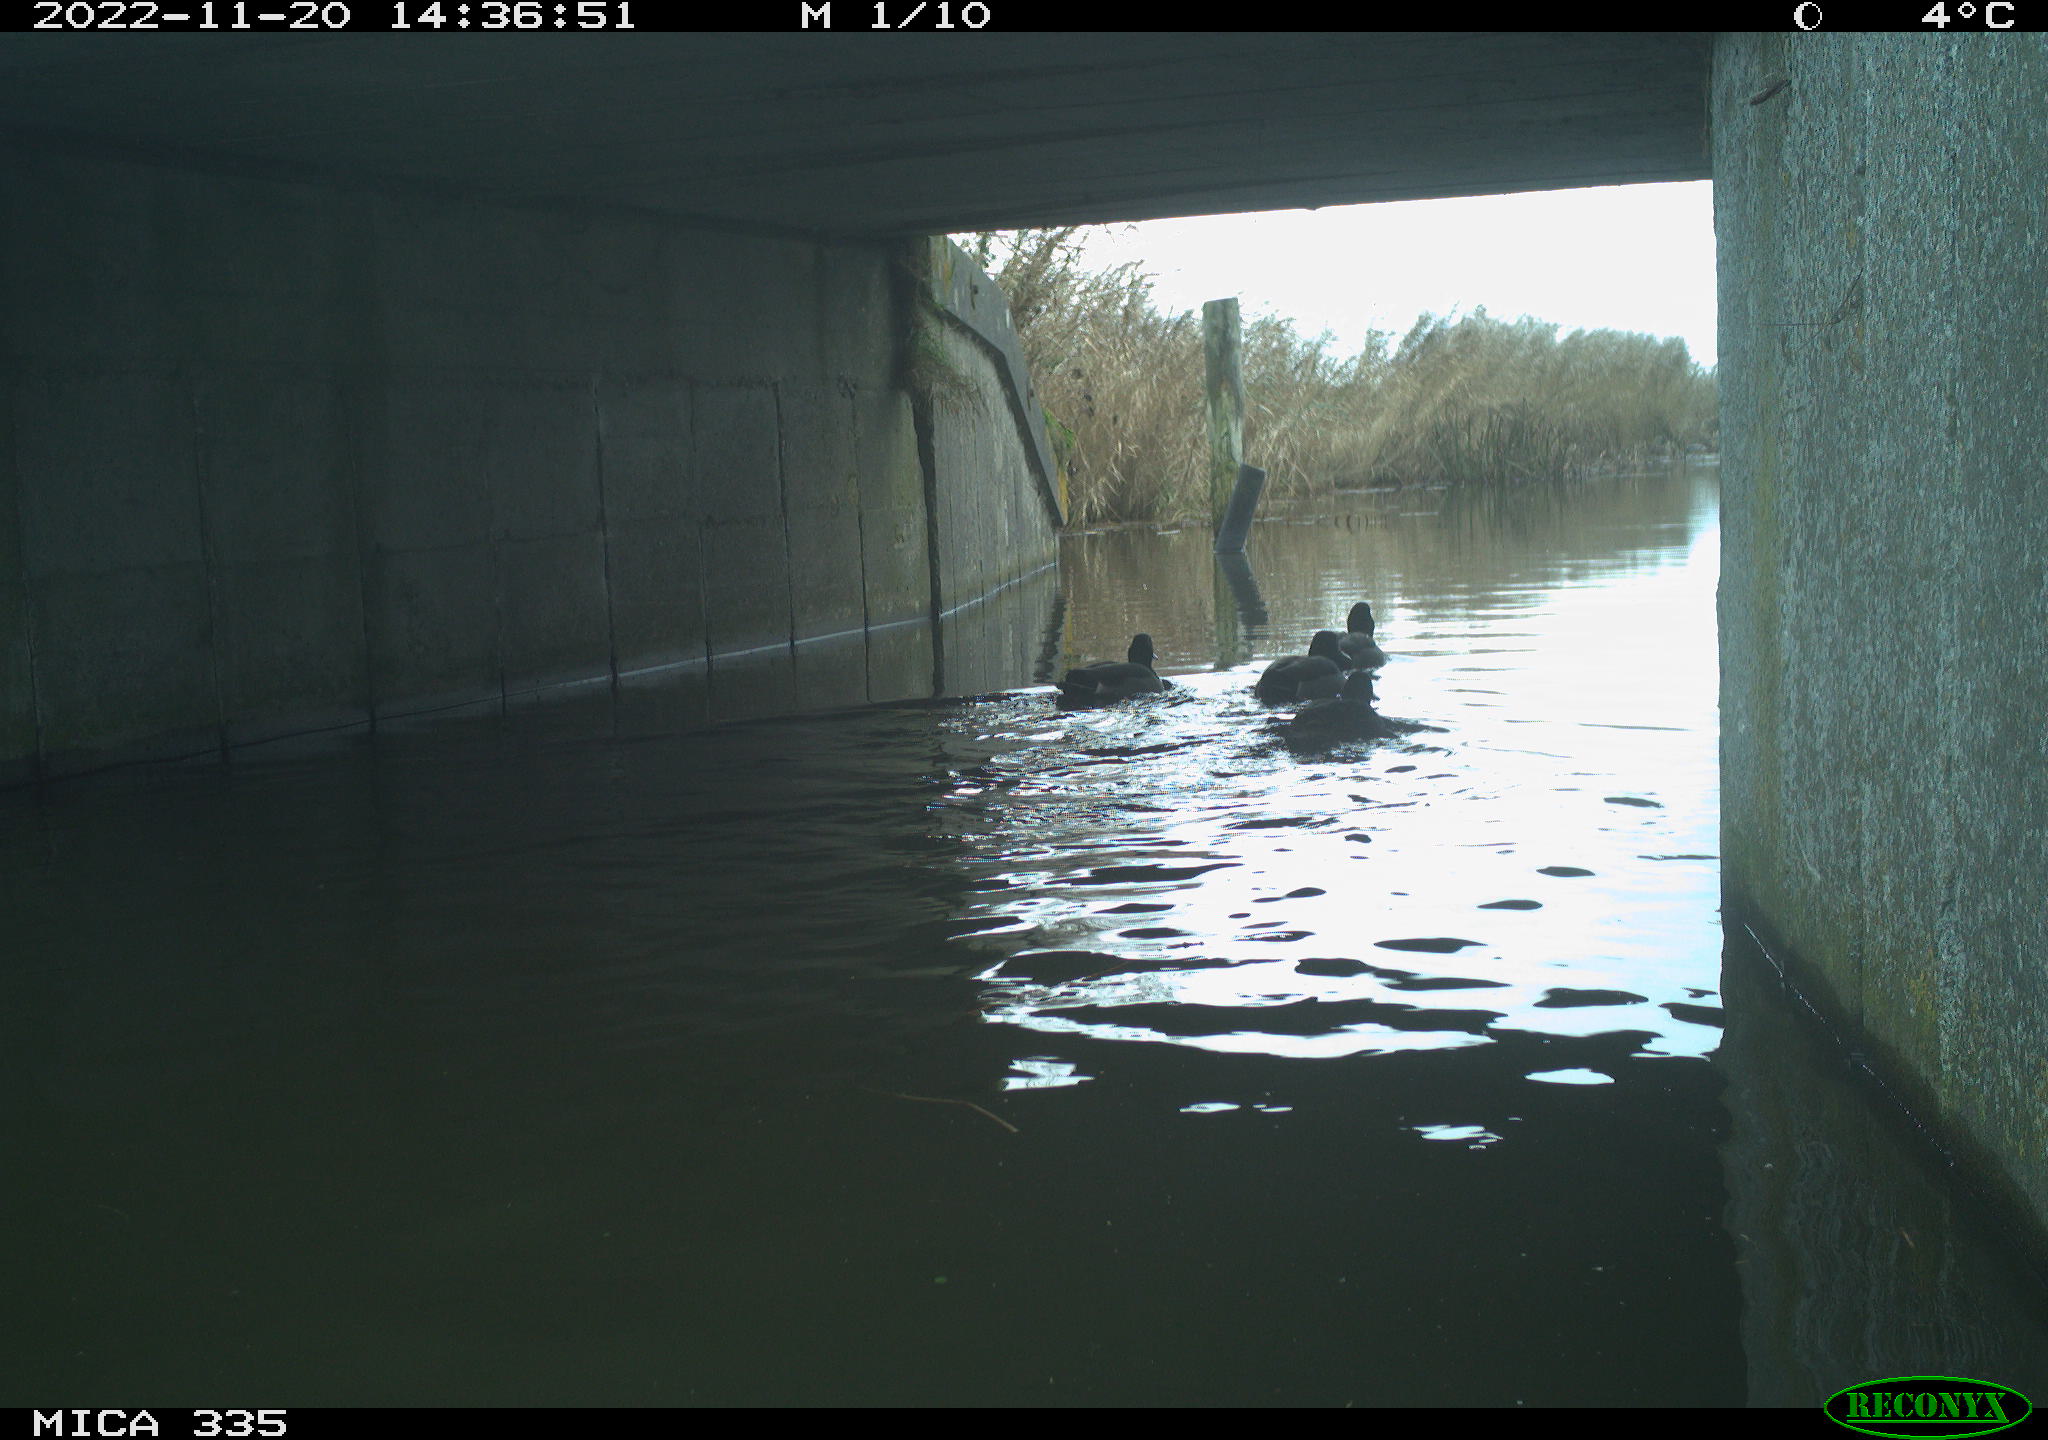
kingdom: Animalia
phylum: Chordata
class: Aves
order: Anseriformes
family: Anatidae
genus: Anas
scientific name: Anas platyrhynchos
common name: Mallard
